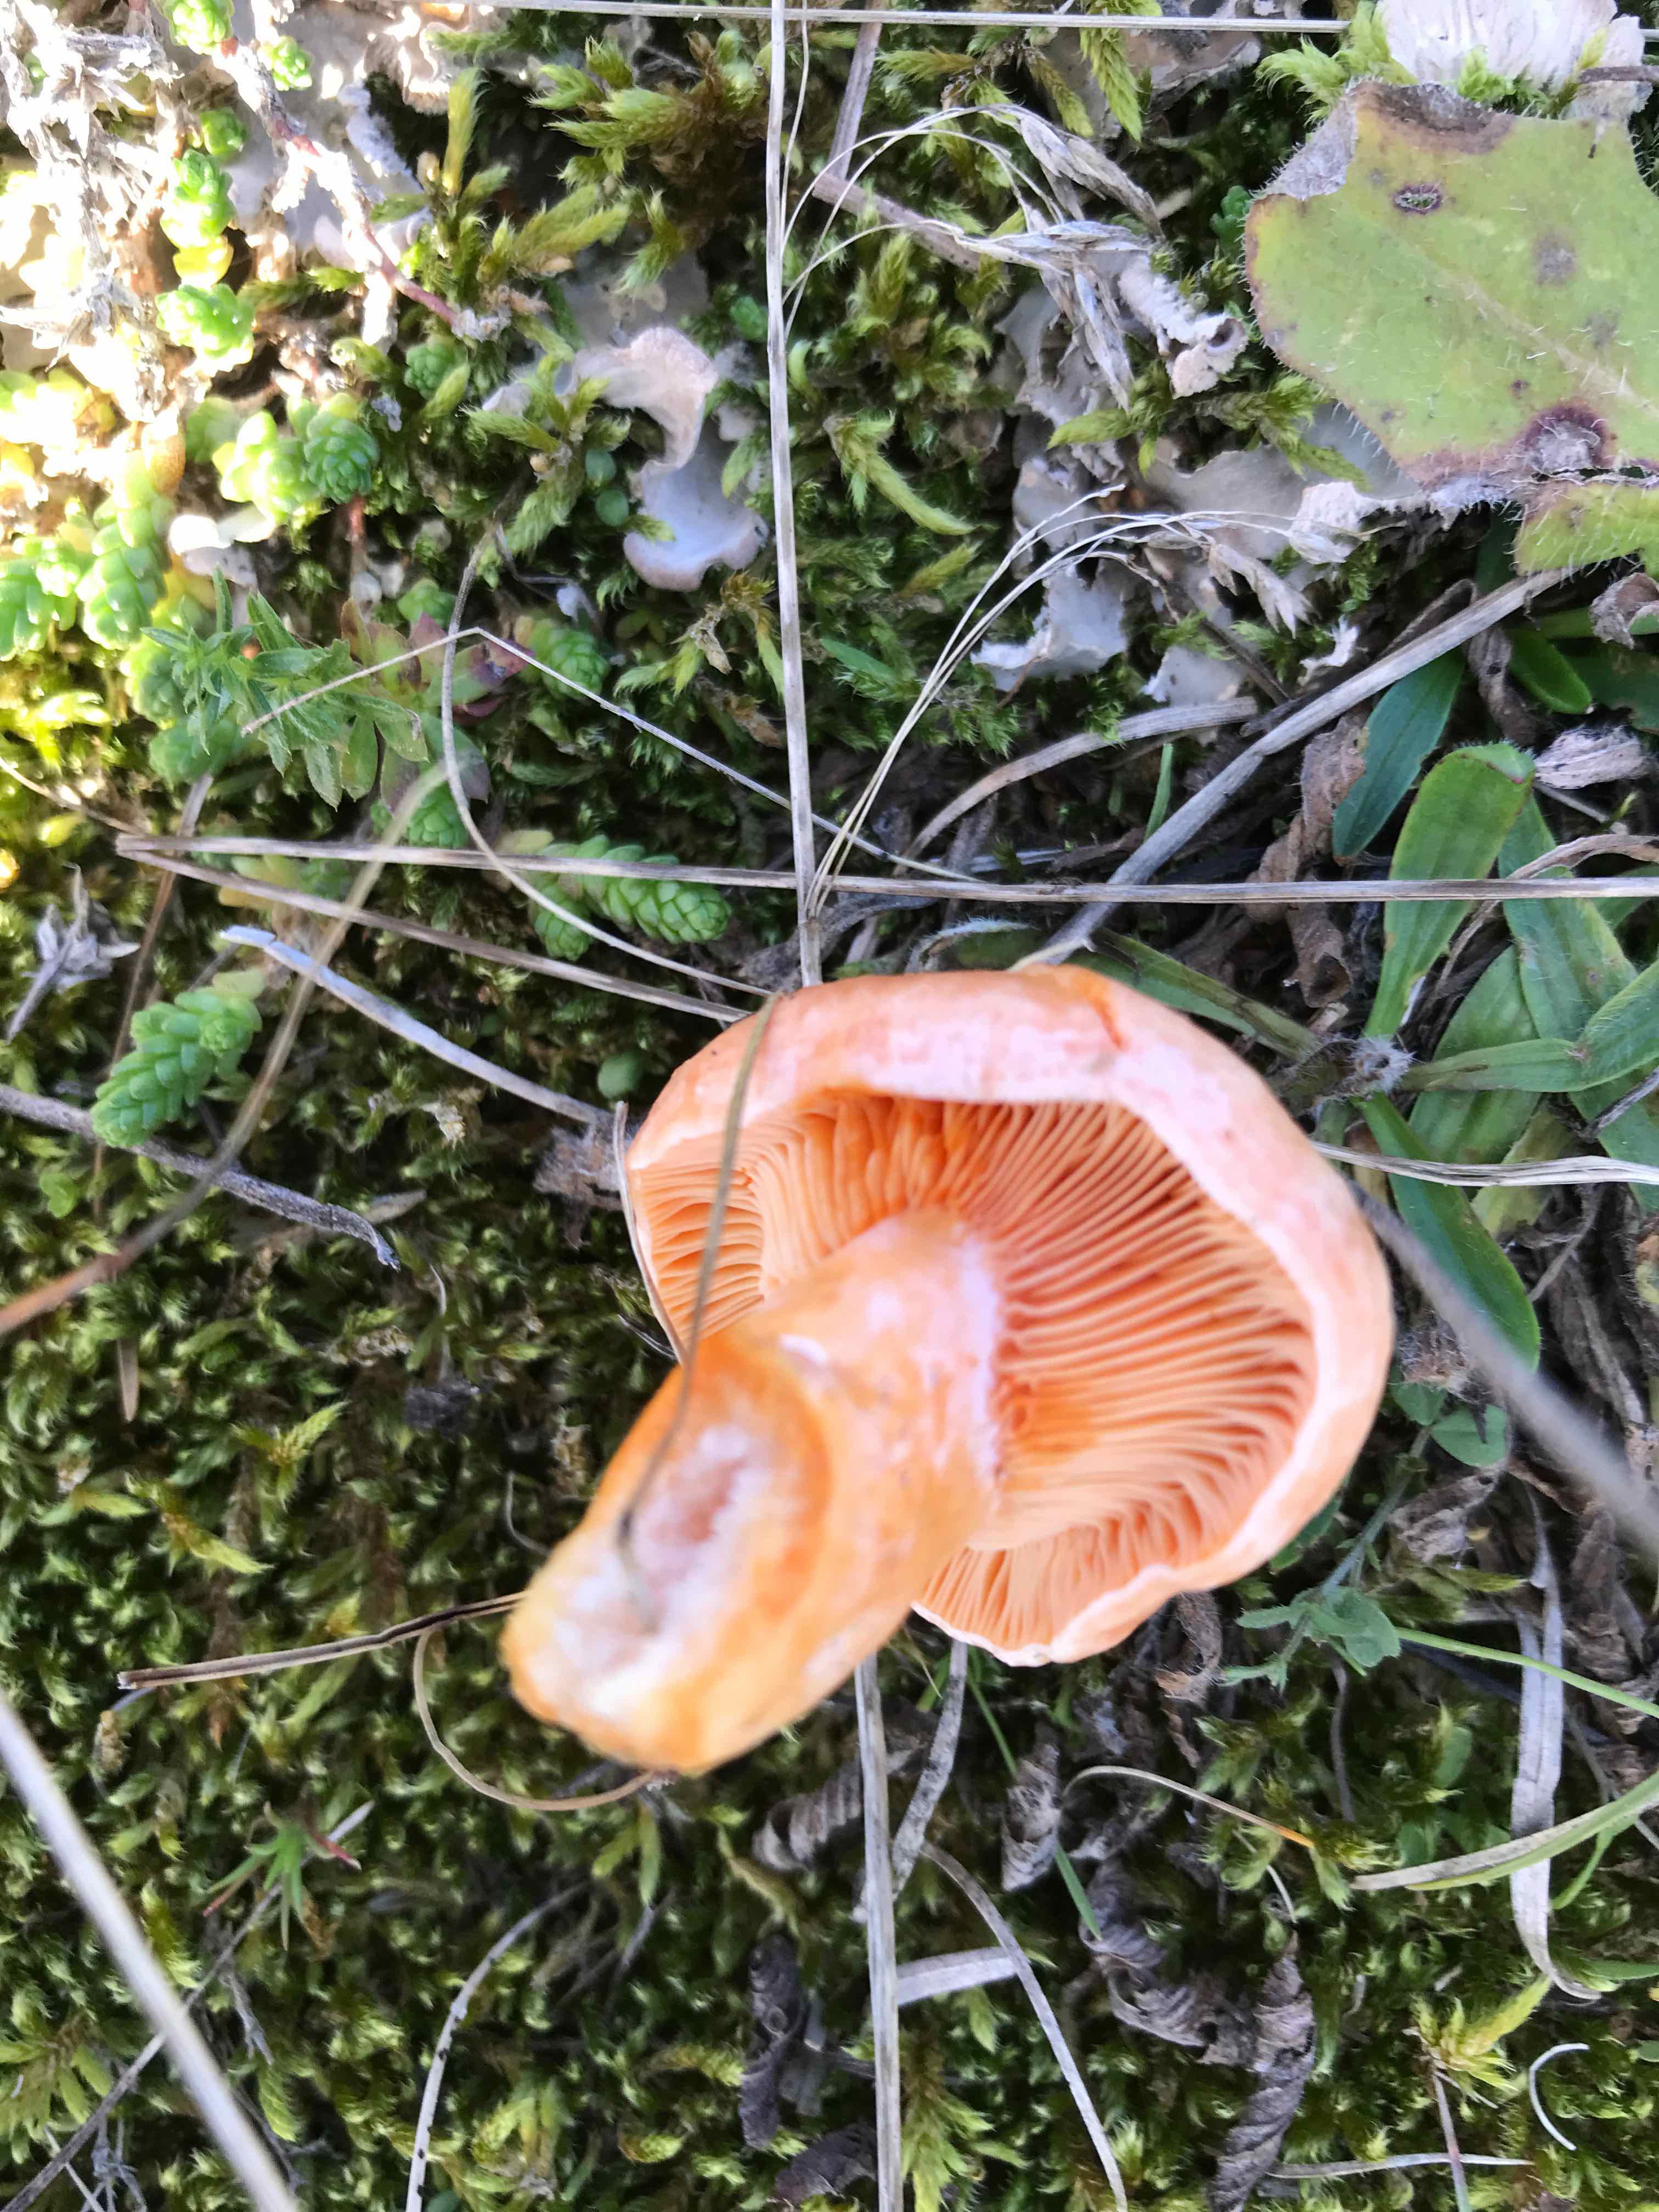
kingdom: Fungi
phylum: Basidiomycota
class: Agaricomycetes
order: Russulales
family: Russulaceae
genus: Lactarius
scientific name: Lactarius deliciosus
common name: velsmagende mælkehat
